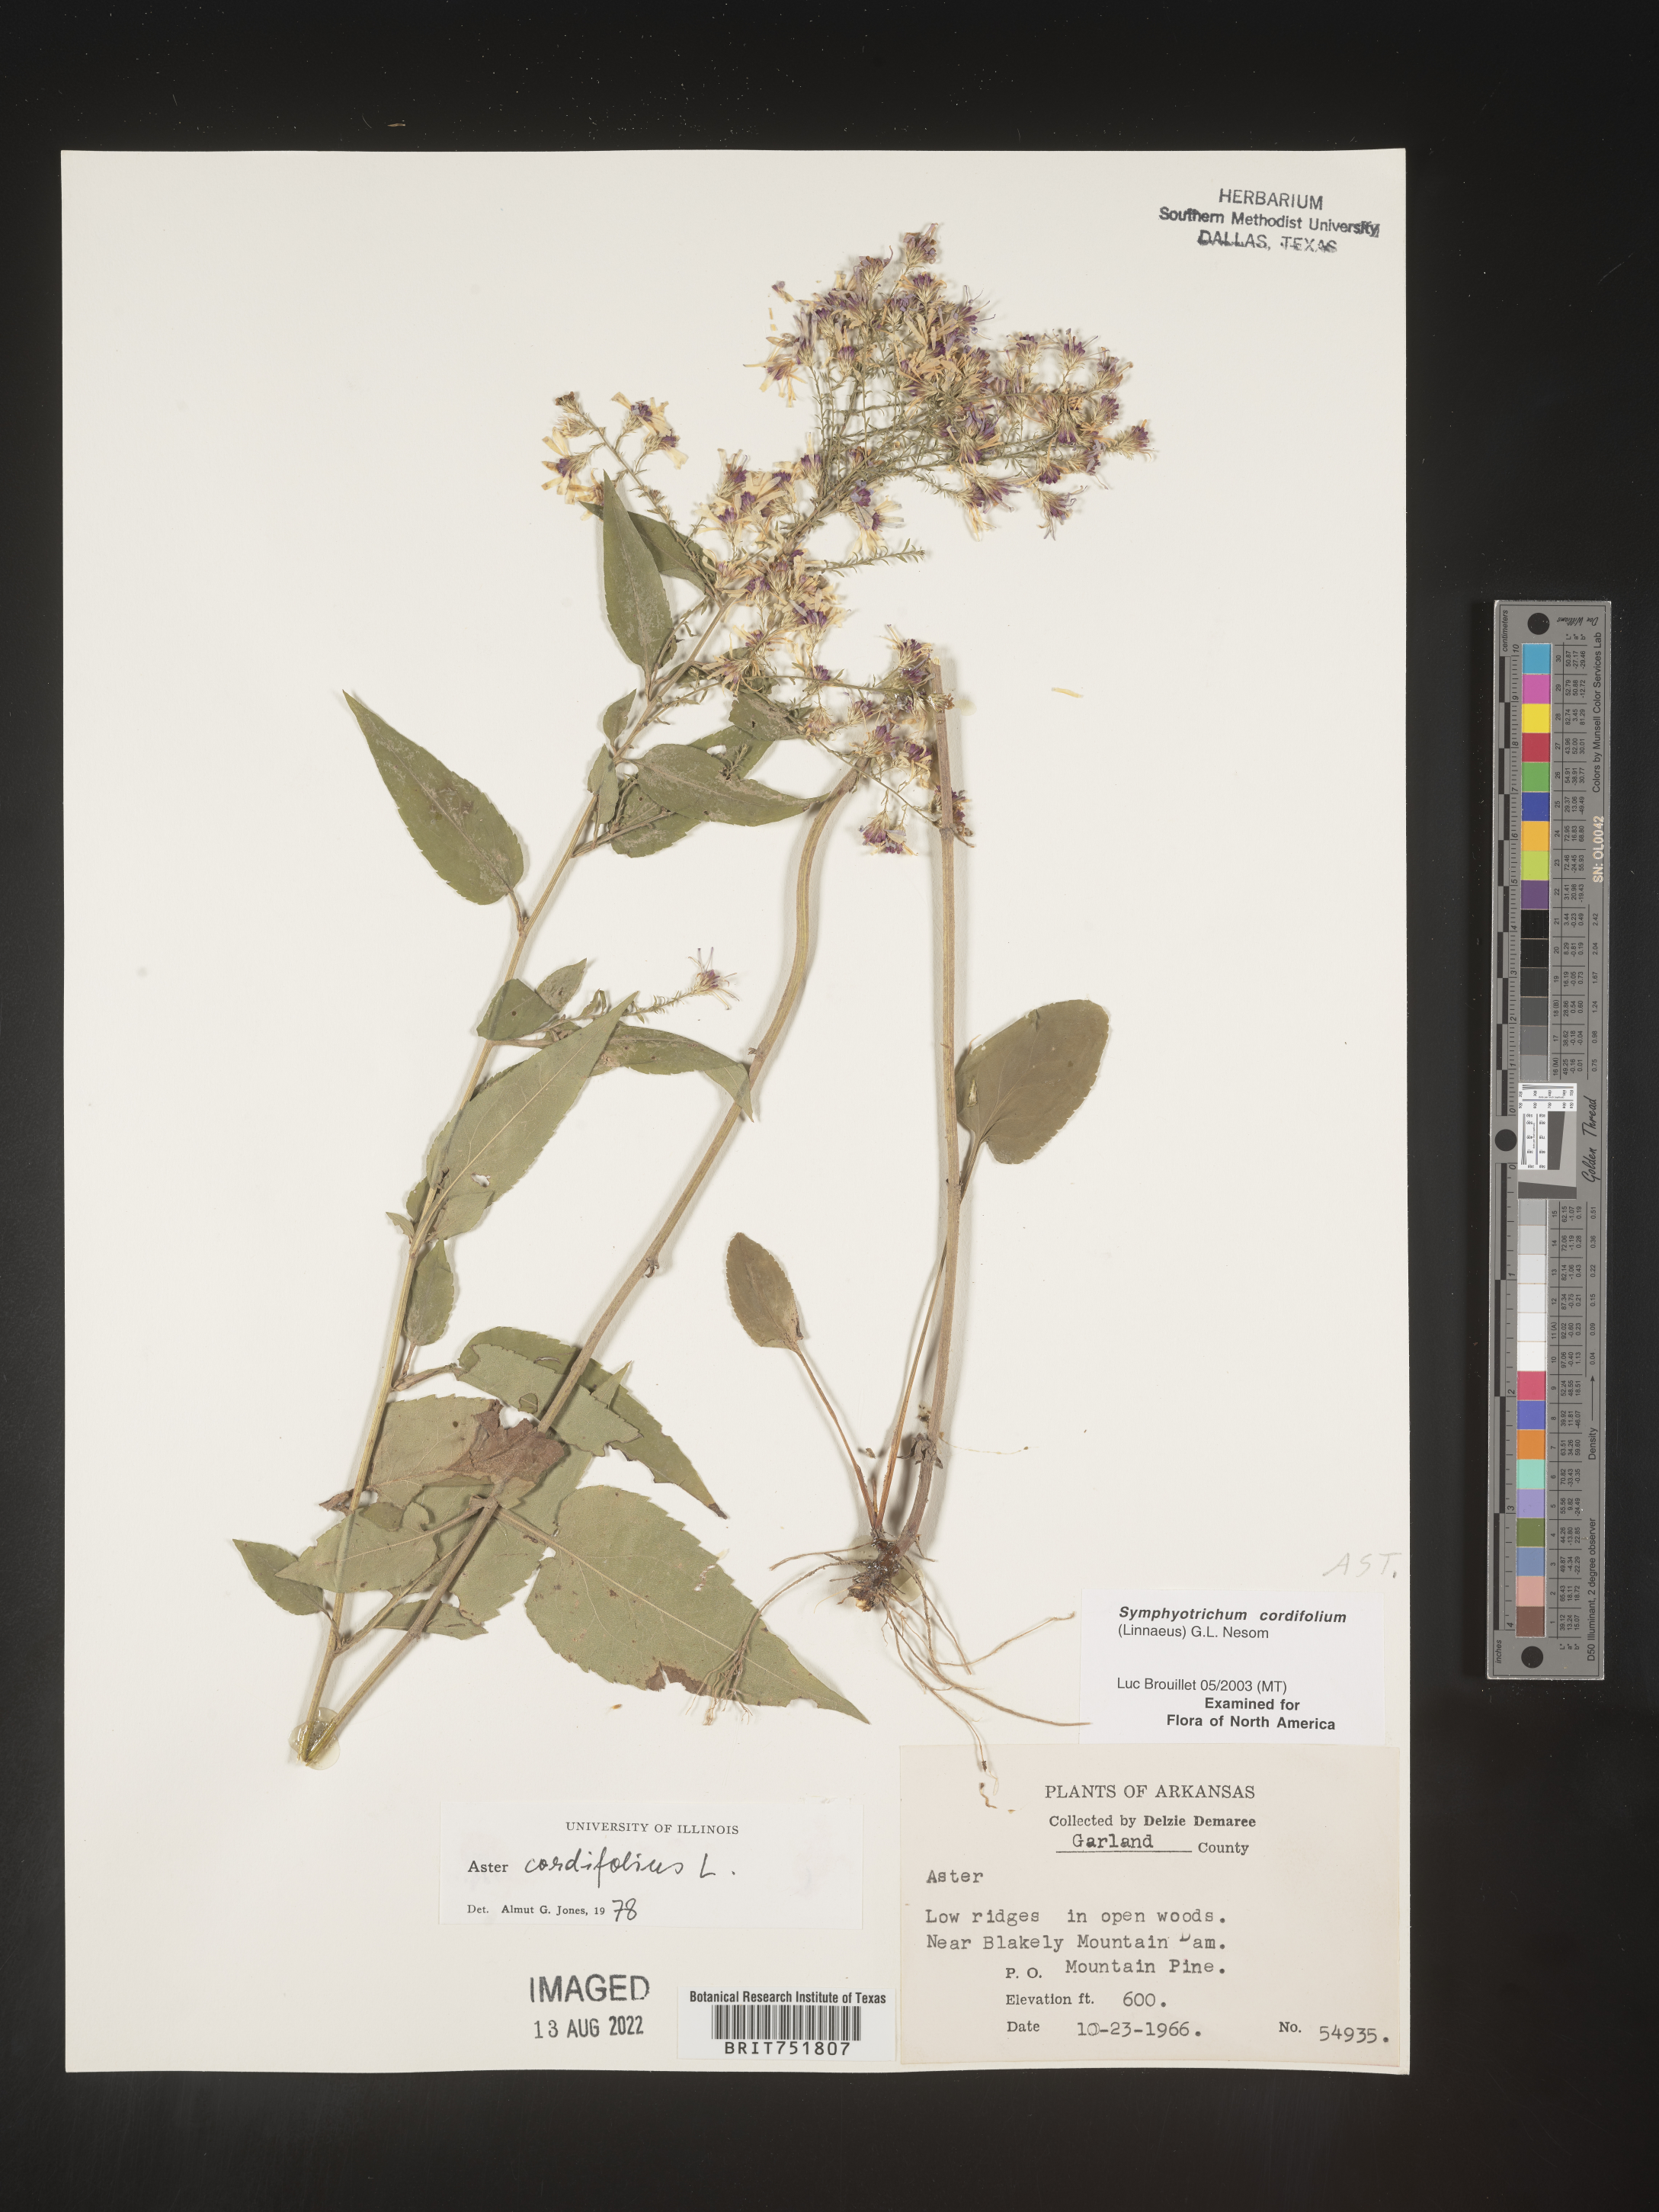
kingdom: Plantae
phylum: Tracheophyta
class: Magnoliopsida
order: Asterales
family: Asteraceae
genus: Symphyotrichum
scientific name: Symphyotrichum drummondii
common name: Drummond's aster
